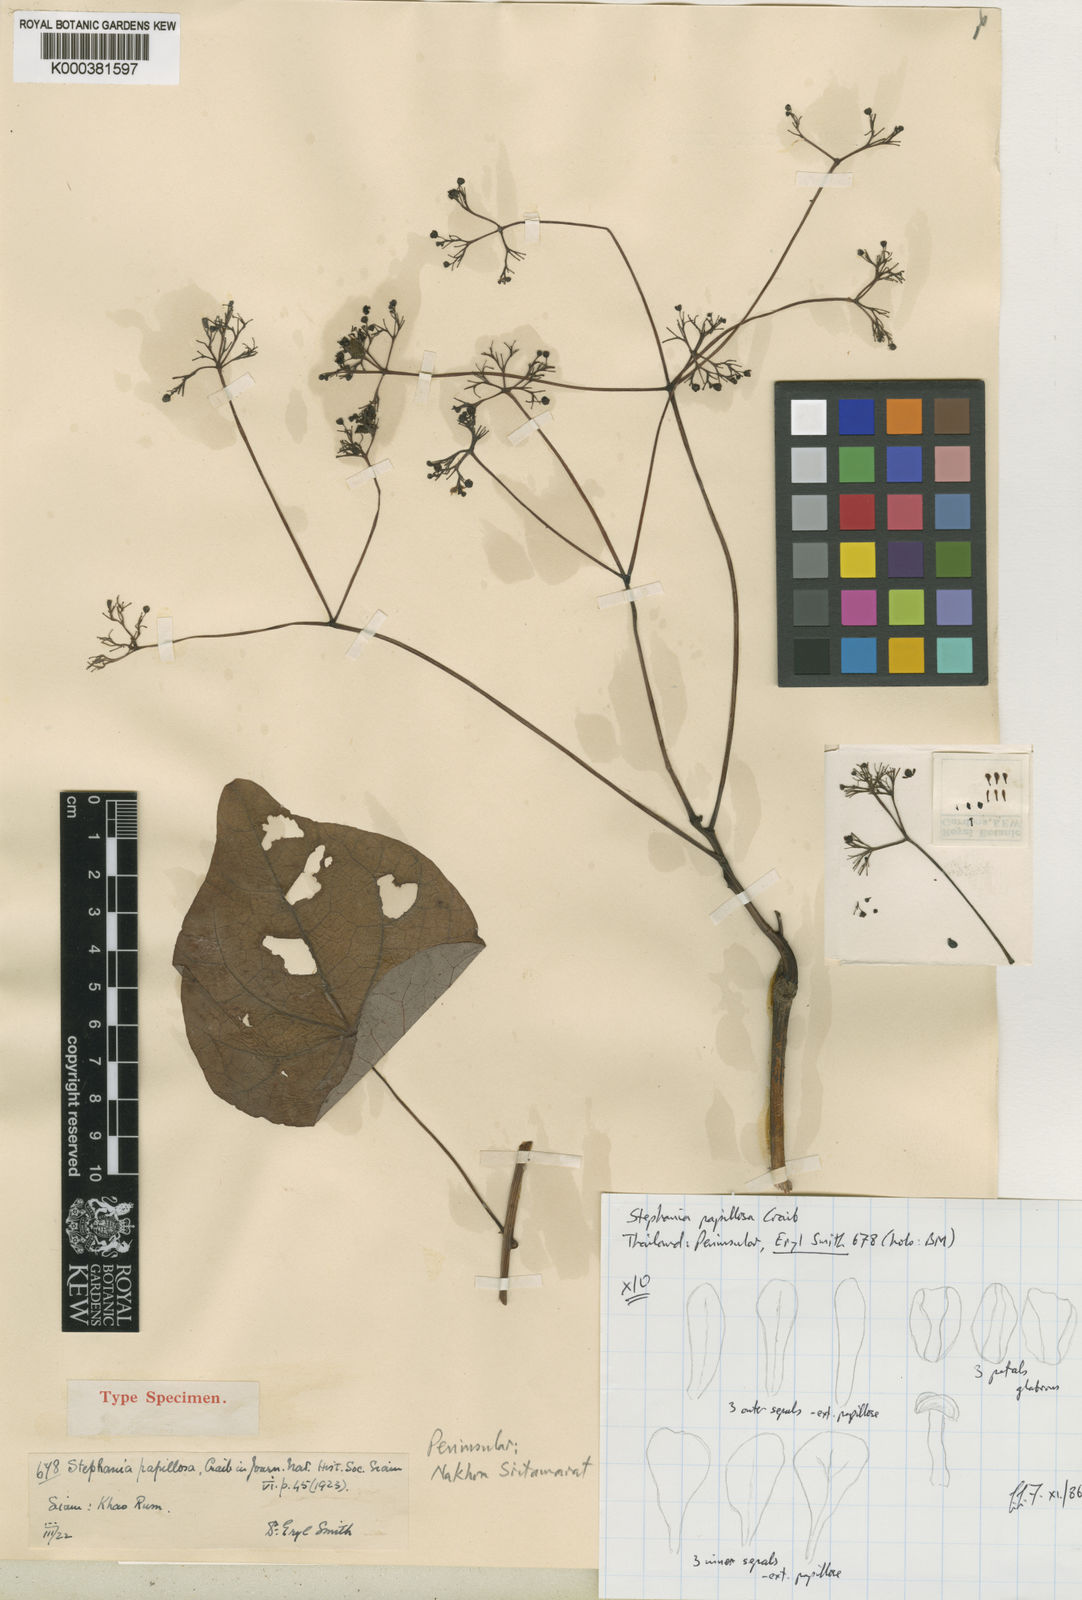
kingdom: Plantae
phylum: Tracheophyta
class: Magnoliopsida
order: Ranunculales
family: Menispermaceae
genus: Stephania
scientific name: Stephania papillosa
